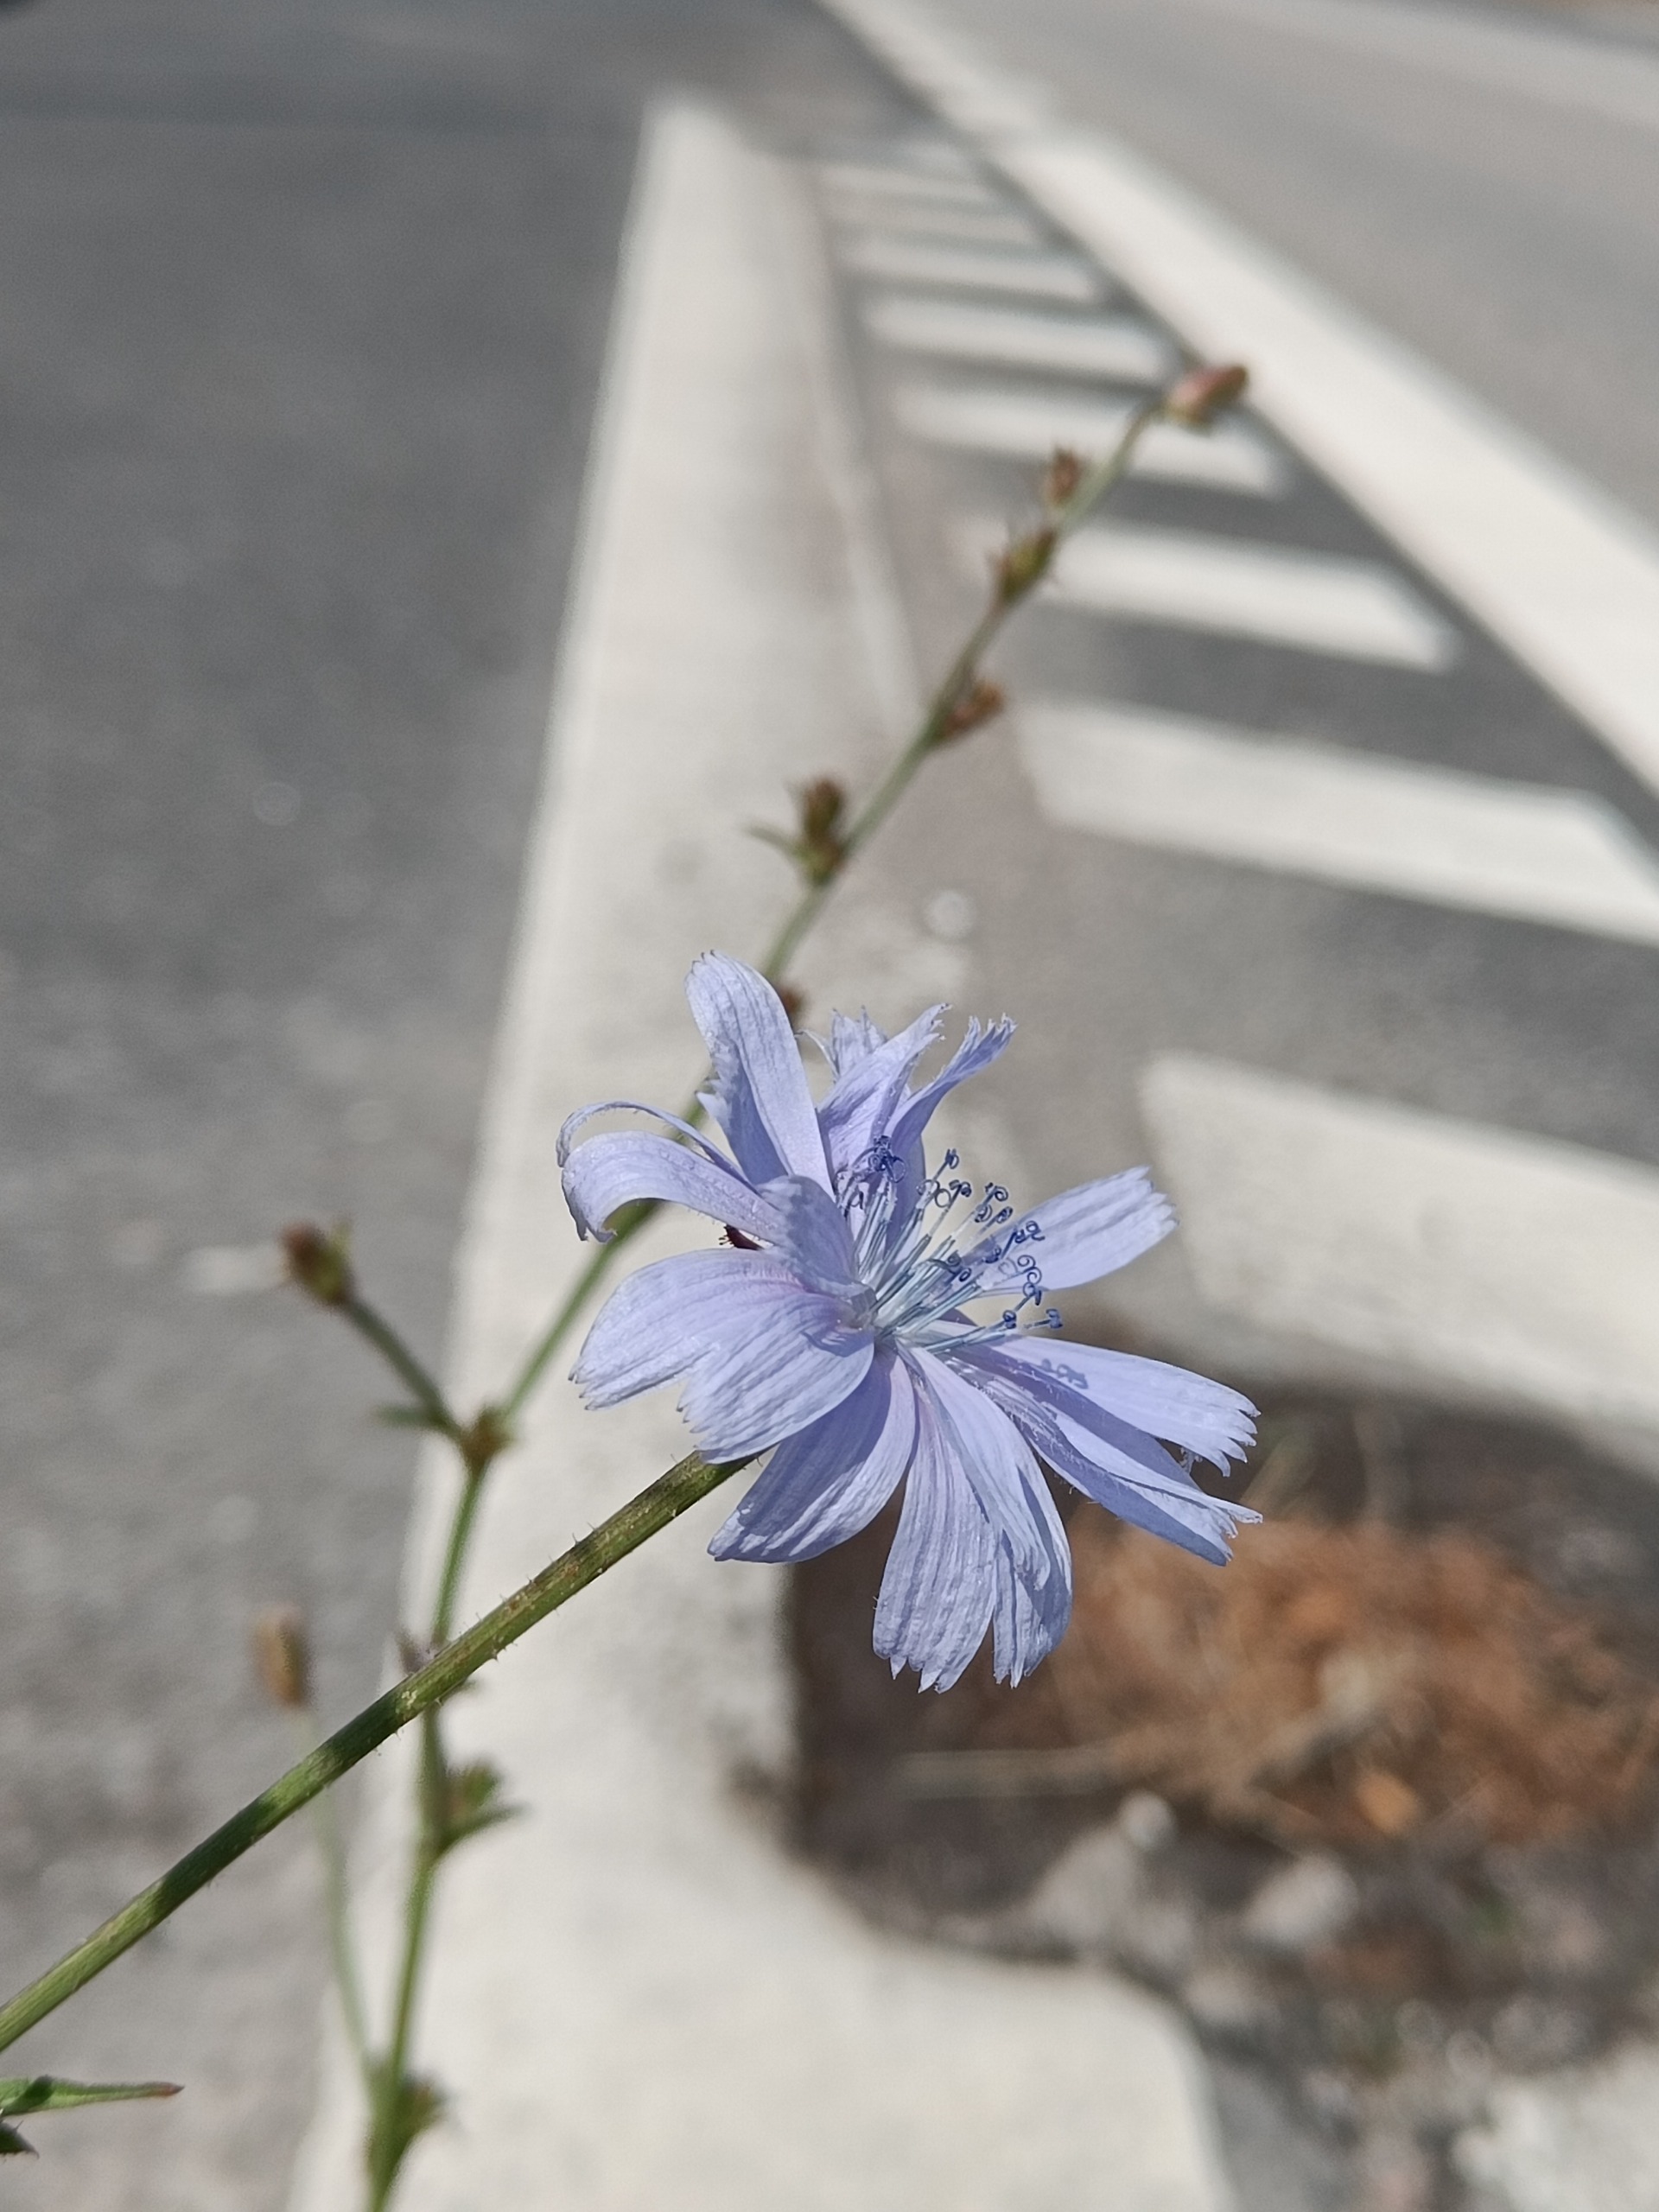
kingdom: Plantae
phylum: Tracheophyta
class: Magnoliopsida
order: Asterales
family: Asteraceae
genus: Cichorium
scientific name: Cichorium intybus
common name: Cikorie
